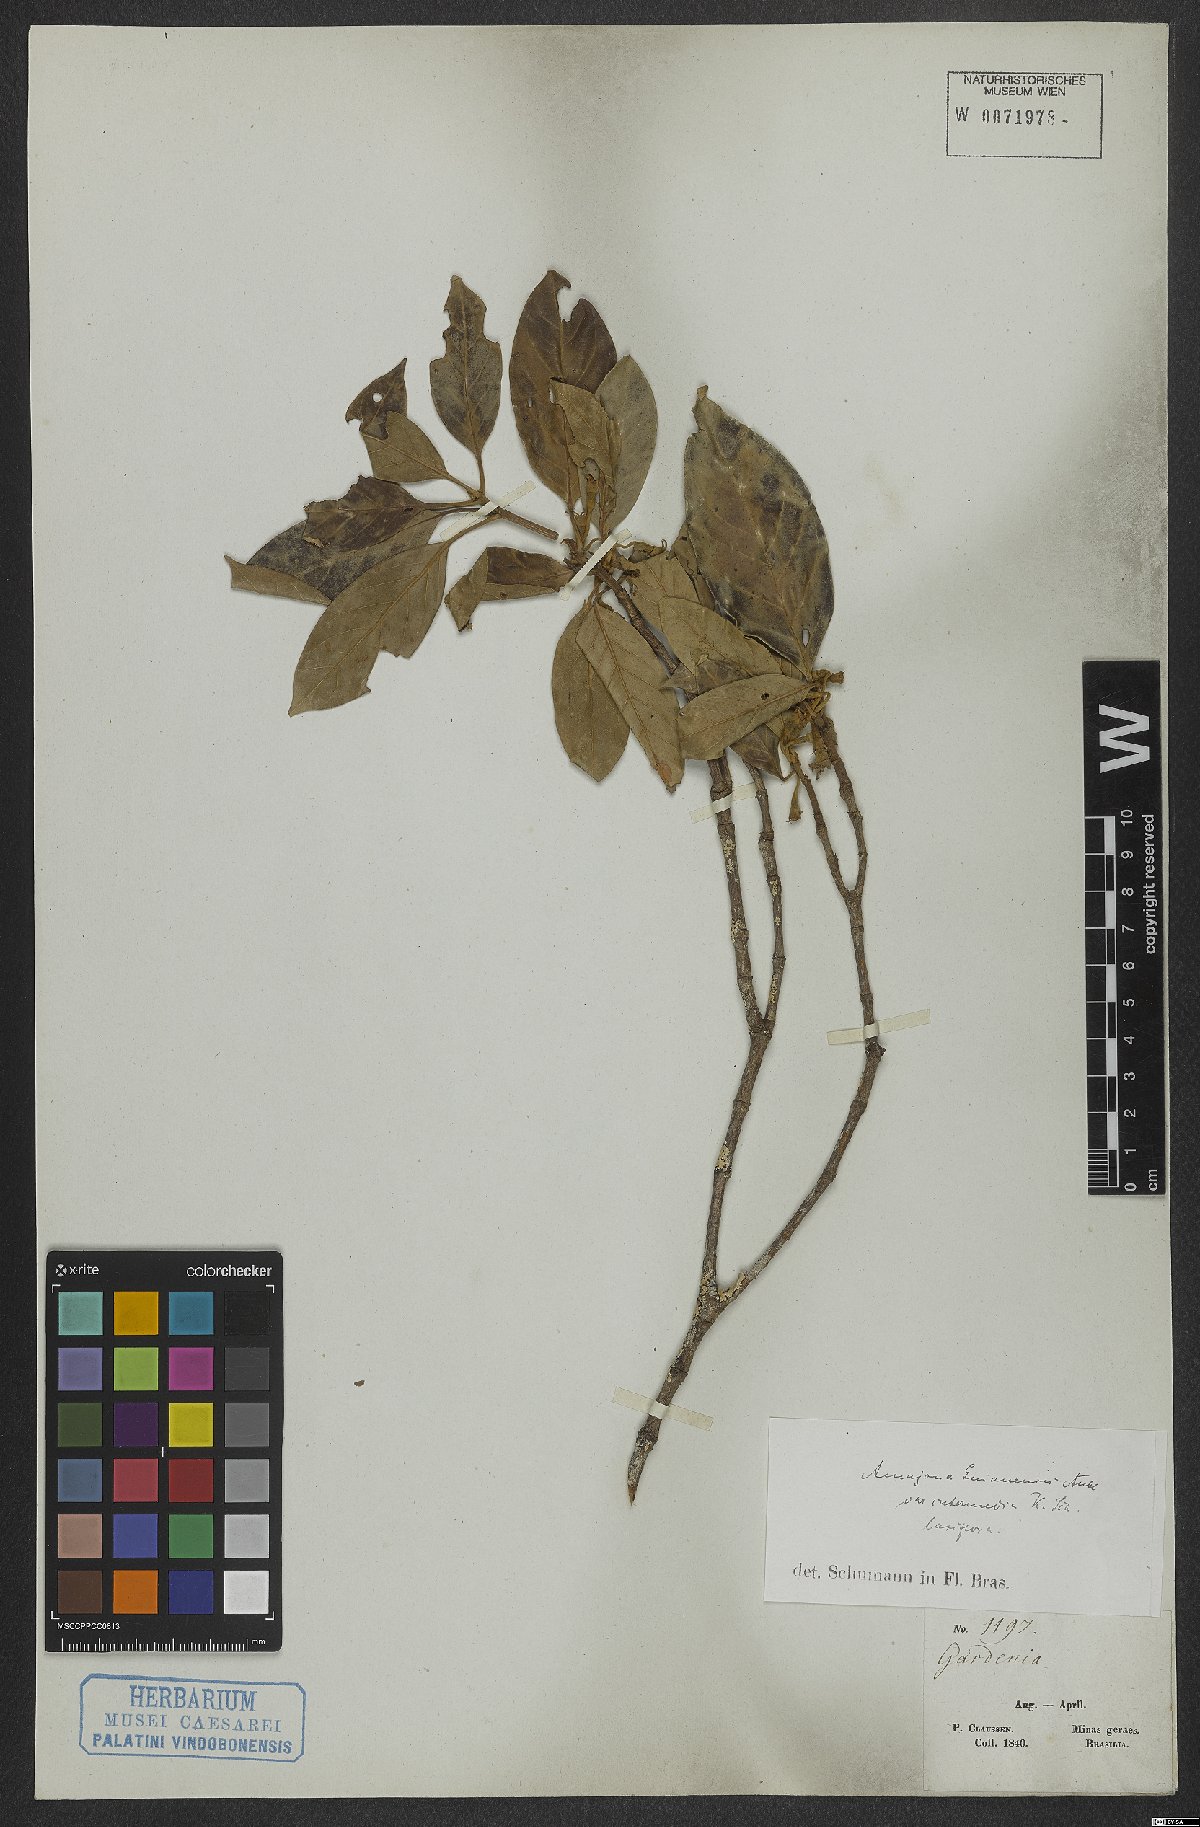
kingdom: Plantae
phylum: Tracheophyta
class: Magnoliopsida
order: Gentianales
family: Rubiaceae
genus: Amaioua
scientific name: Amaioua guianensis
